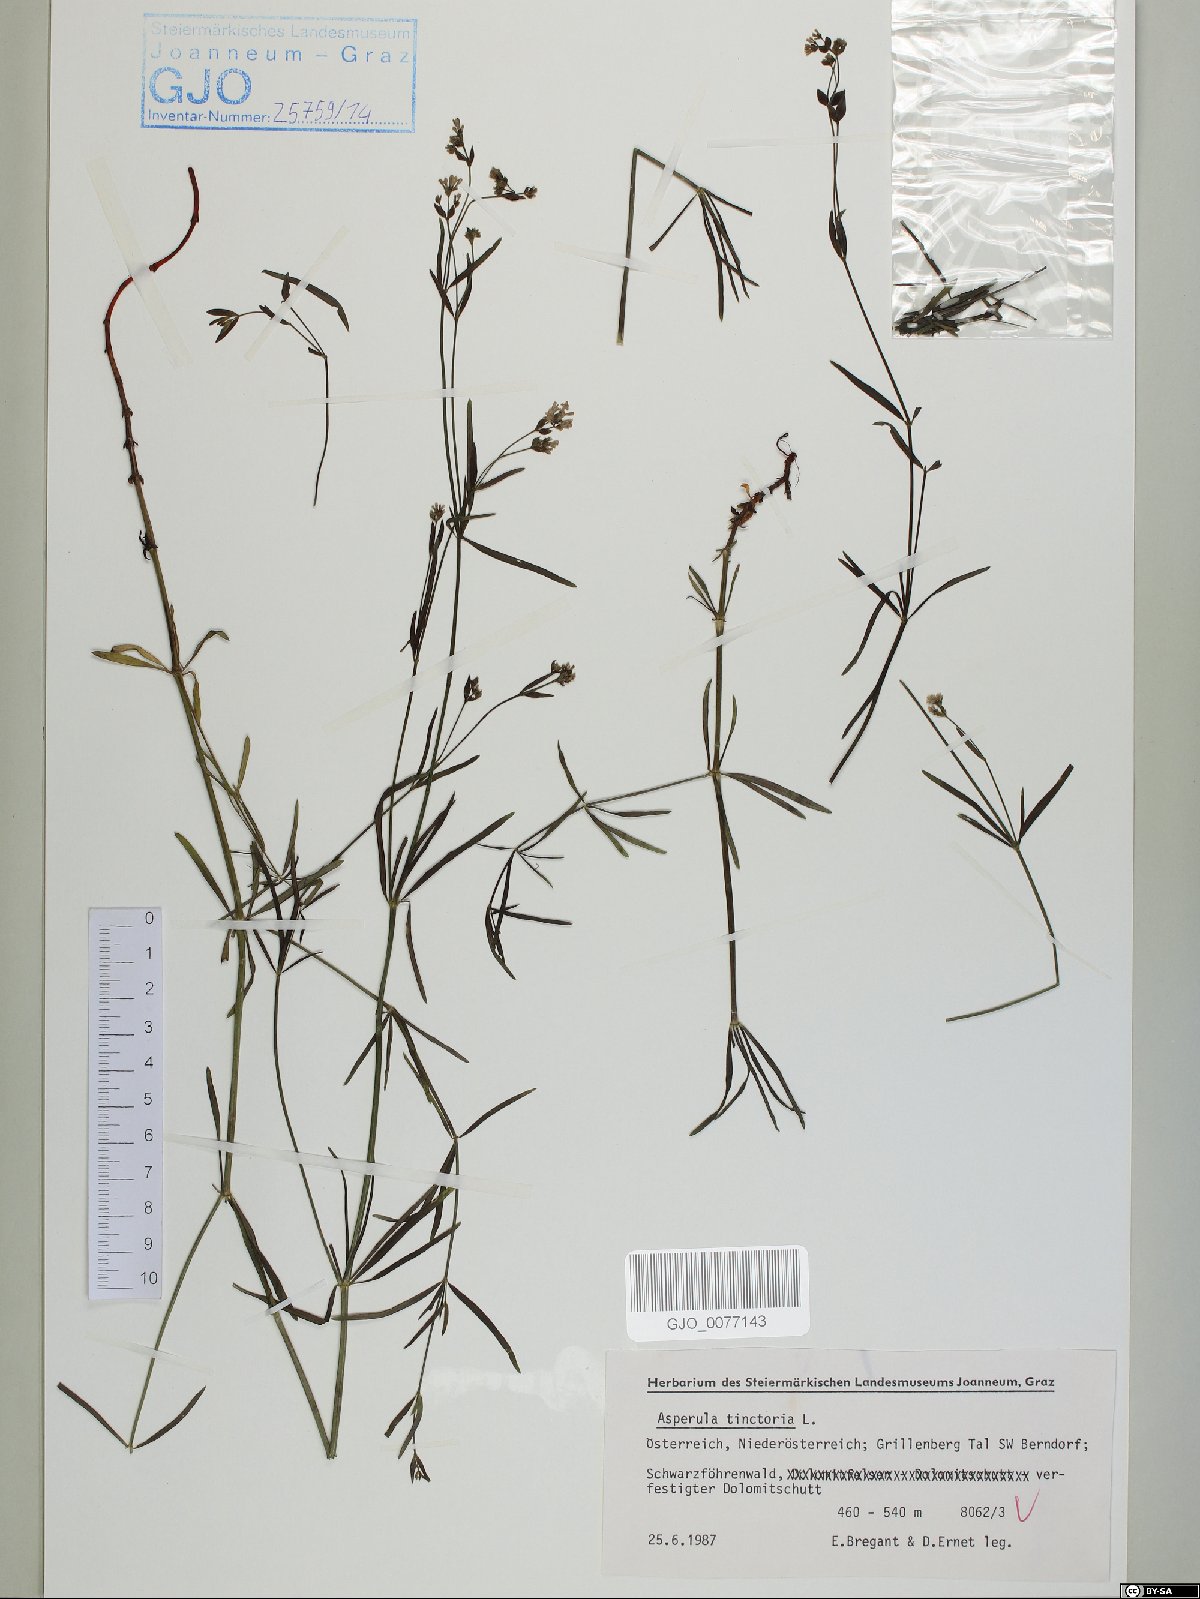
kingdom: Plantae
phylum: Tracheophyta
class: Magnoliopsida
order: Gentianales
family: Rubiaceae
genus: Asperula
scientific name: Asperula tinctoria
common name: Dyer's woodruff
